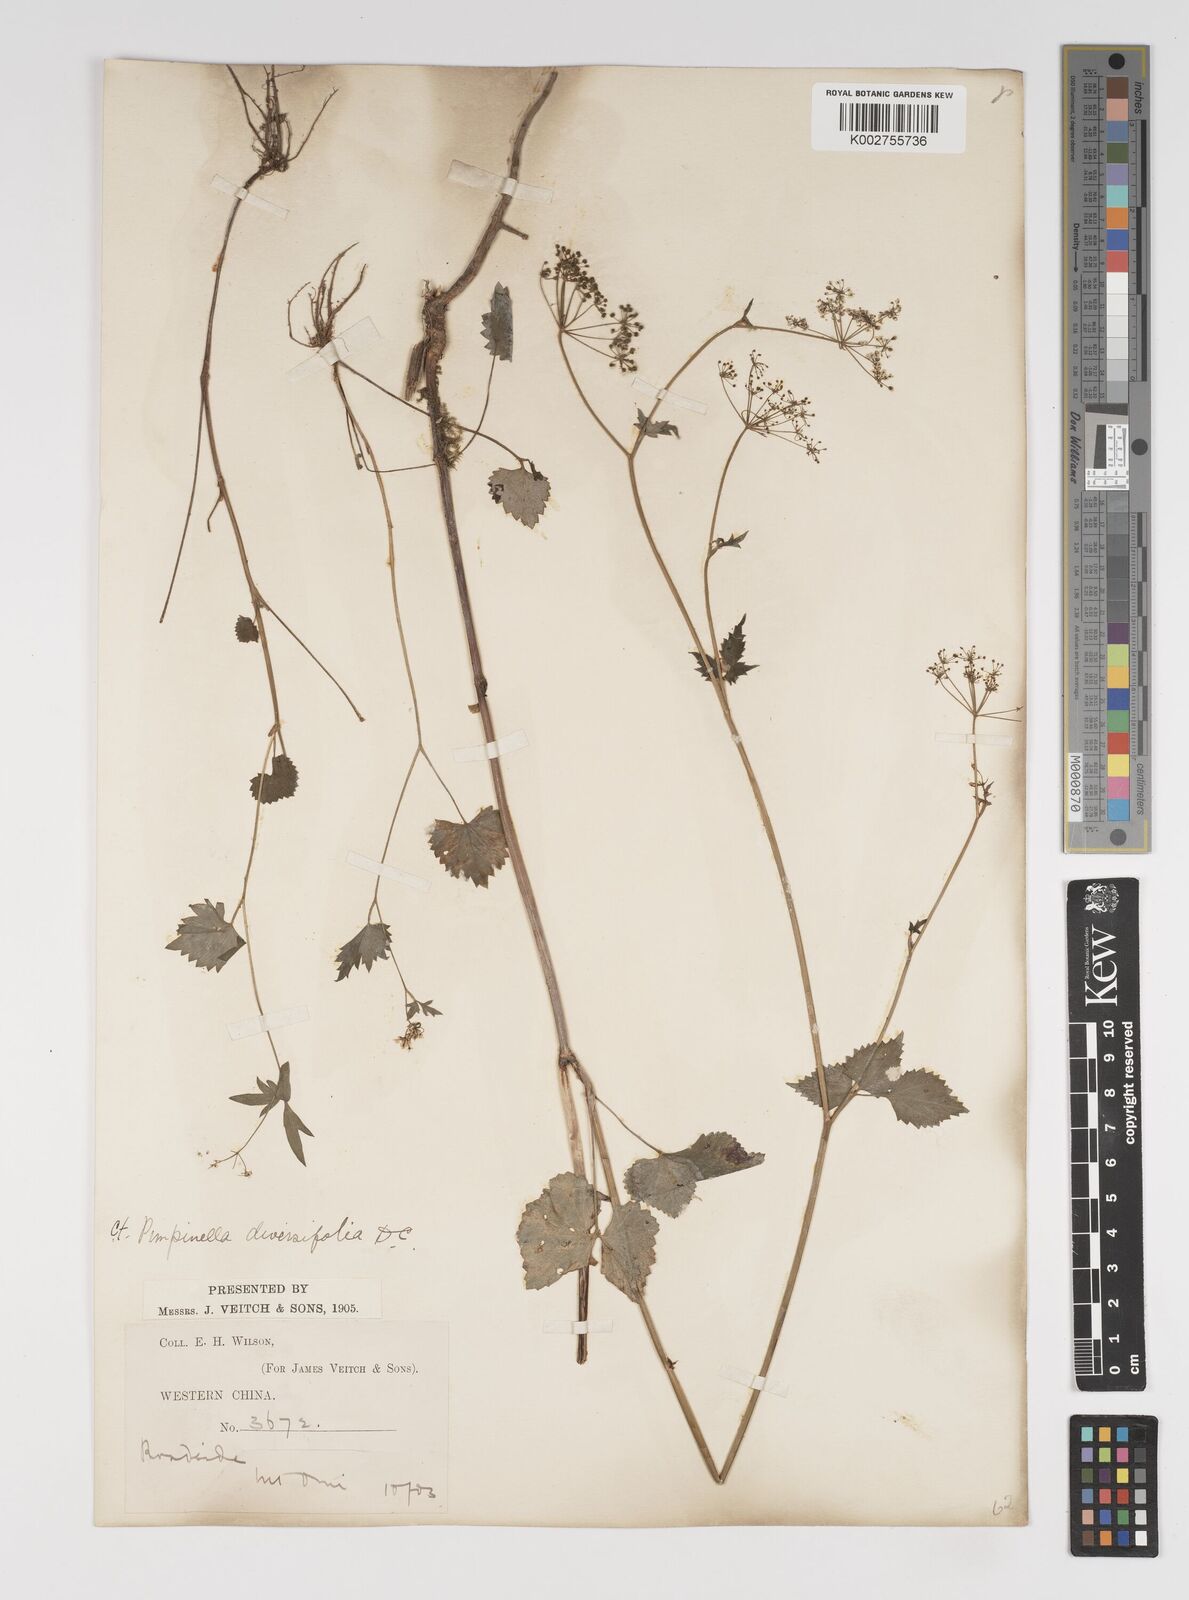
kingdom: Plantae
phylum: Tracheophyta
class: Magnoliopsida
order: Apiales
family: Apiaceae
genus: Pimpinella
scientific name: Pimpinella diversifolia
